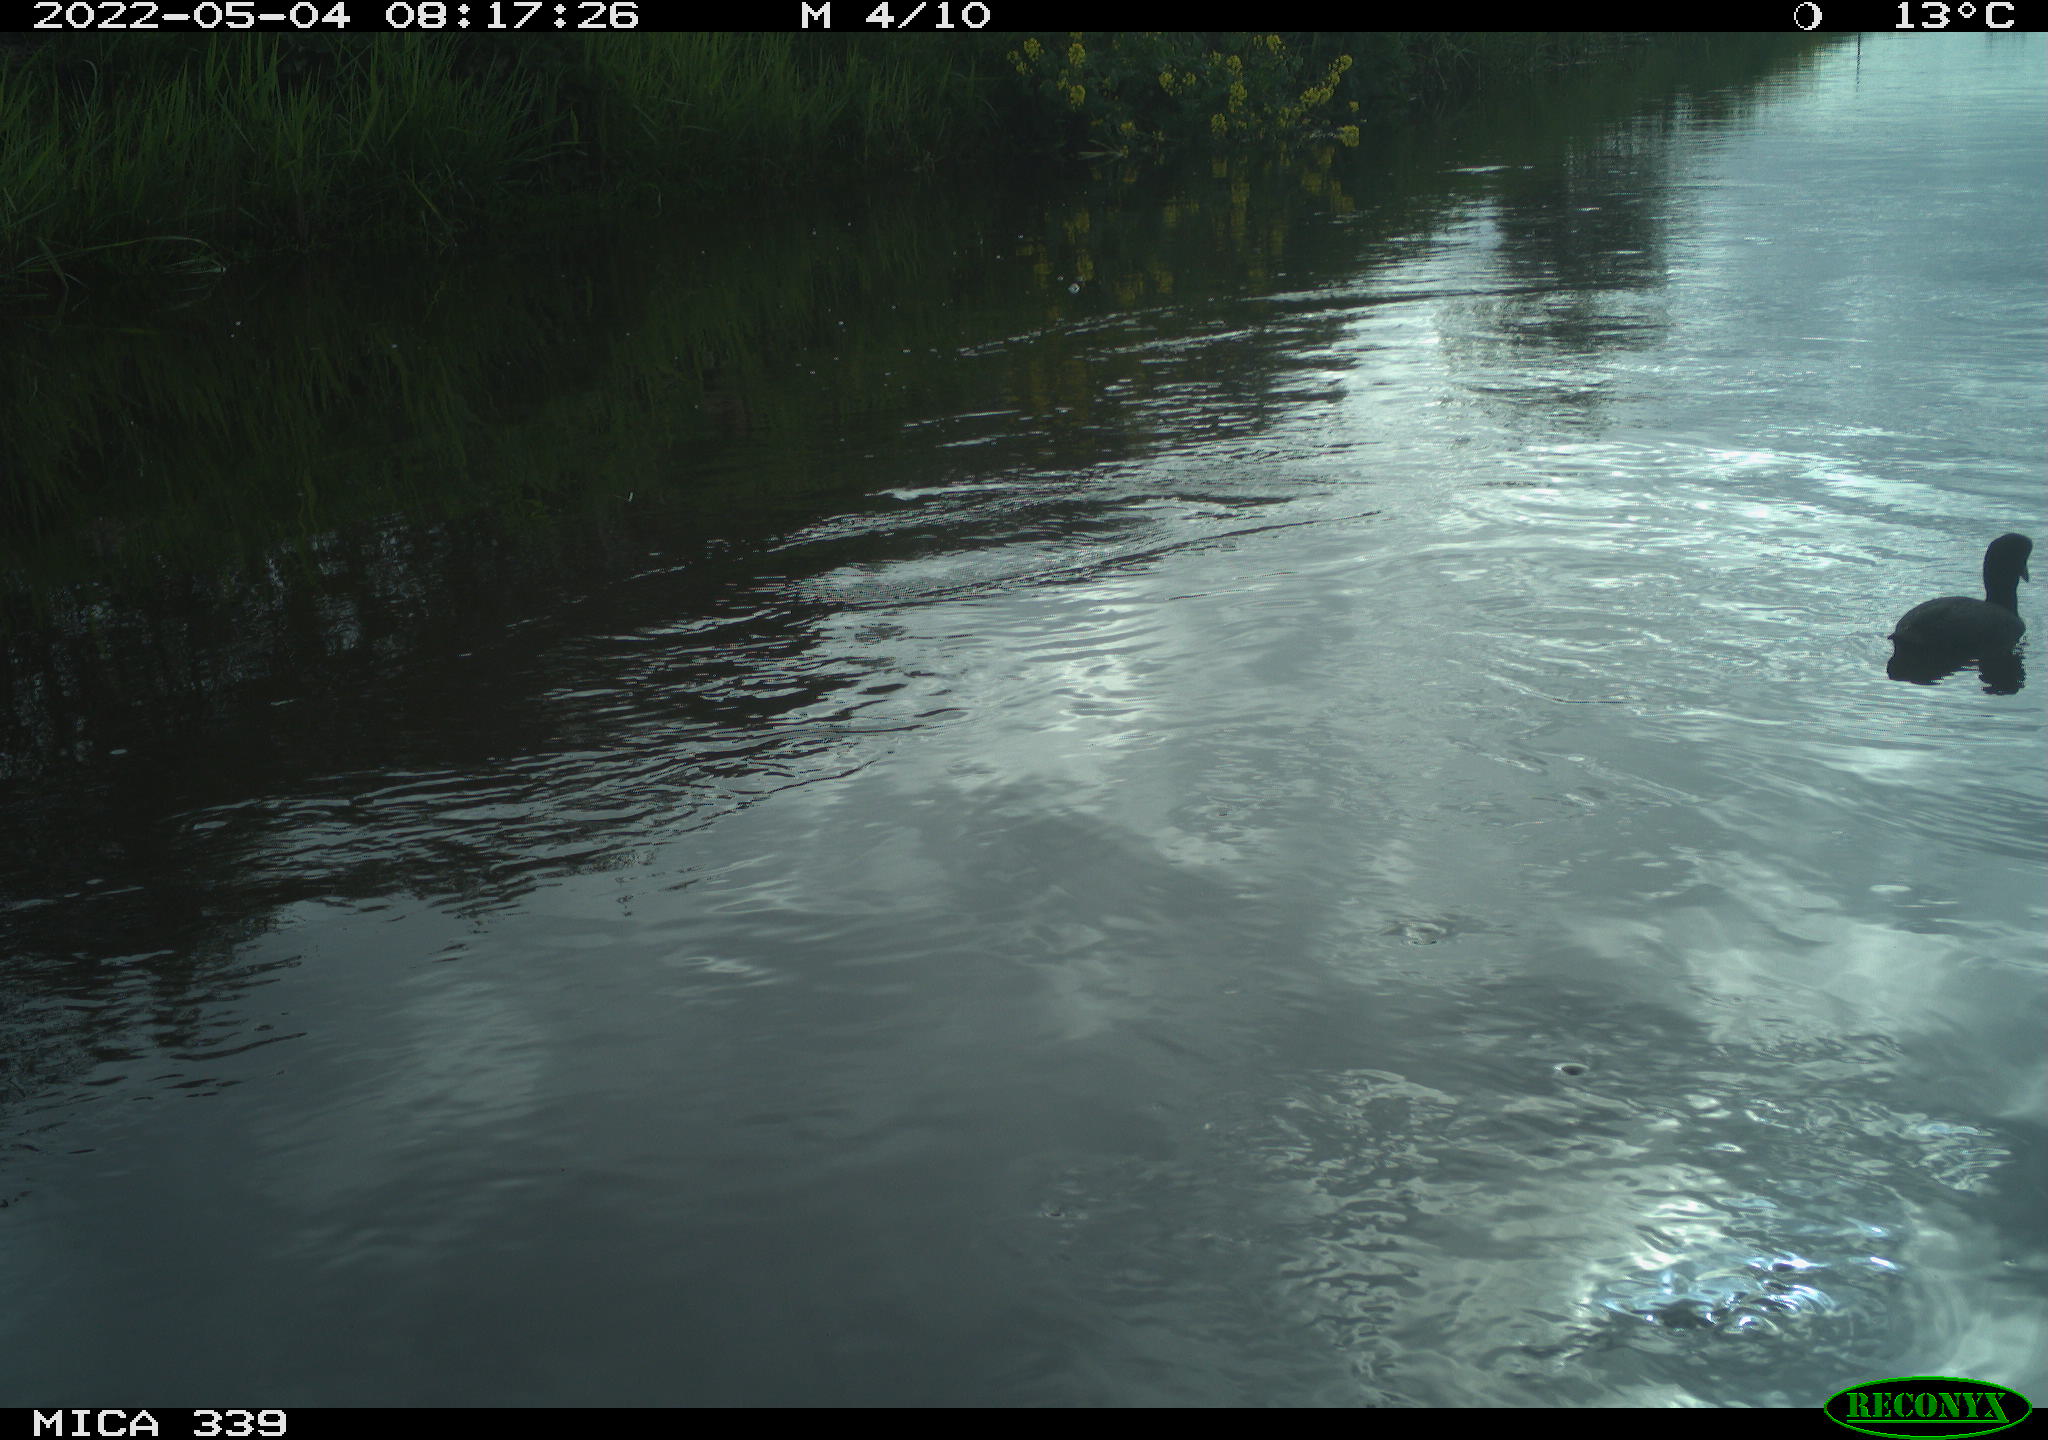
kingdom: Animalia
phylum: Chordata
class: Aves
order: Gruiformes
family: Rallidae
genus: Fulica
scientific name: Fulica atra
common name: Eurasian coot
